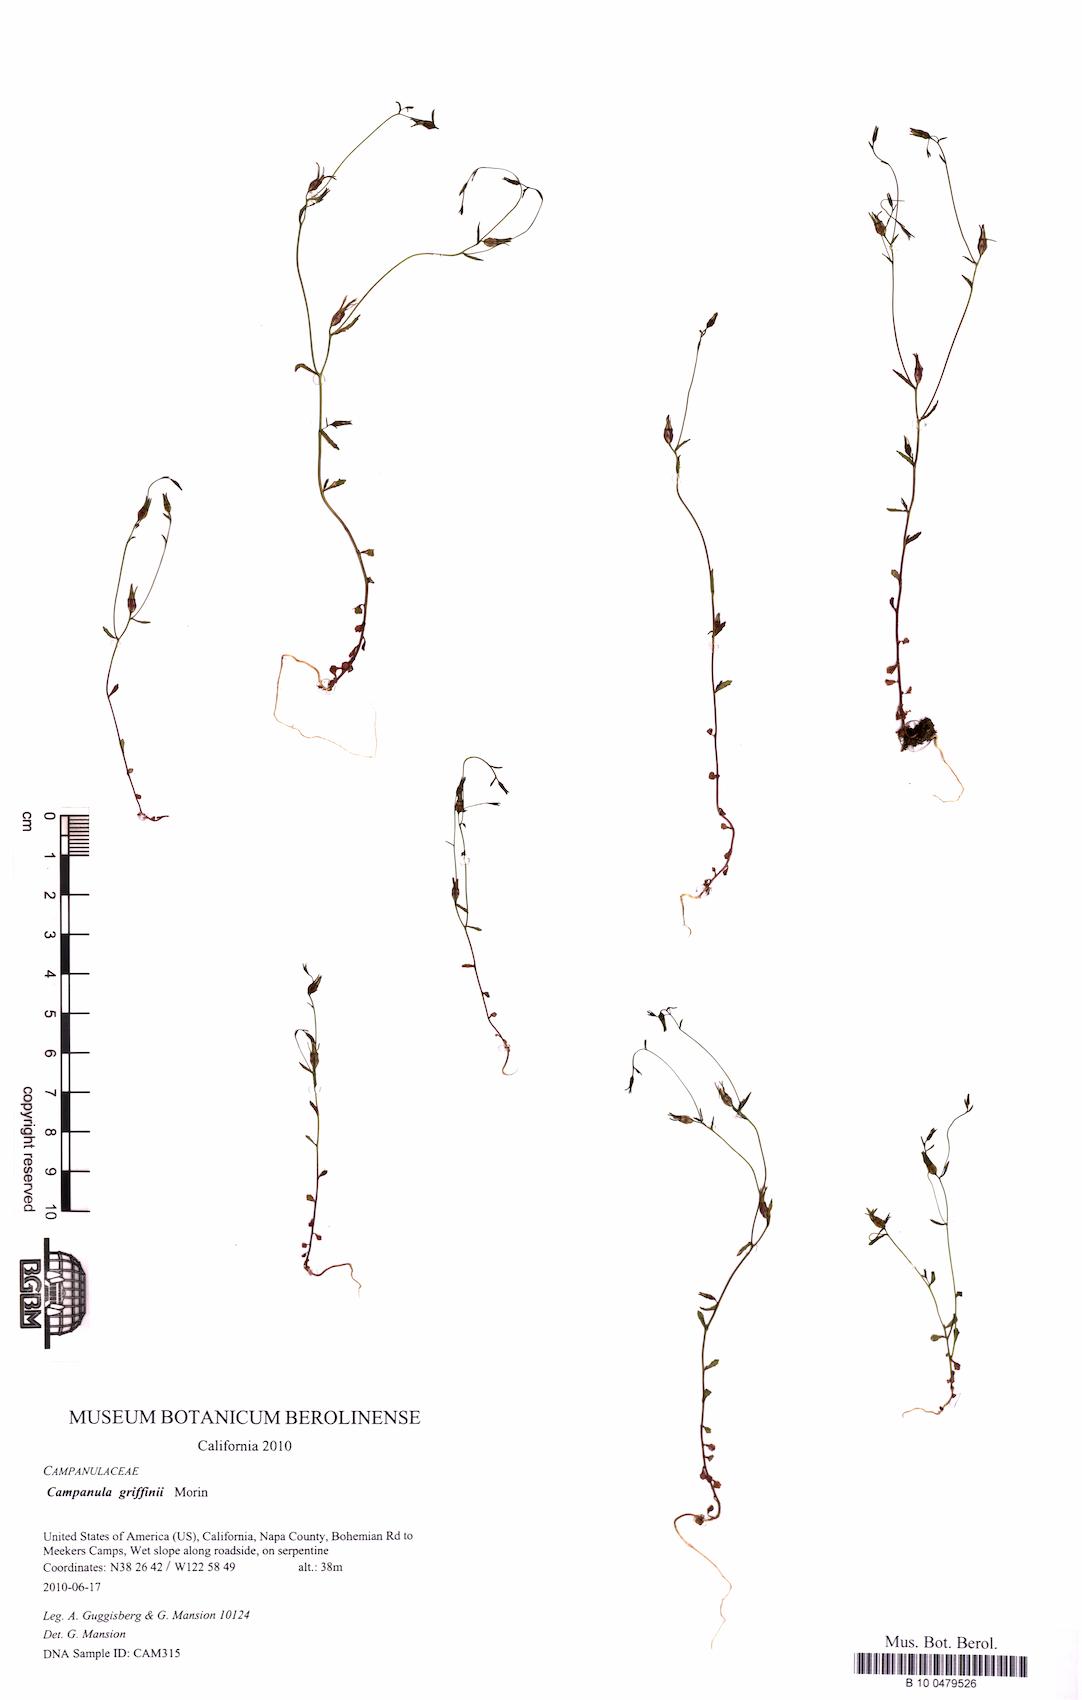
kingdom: Plantae
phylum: Tracheophyta
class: Magnoliopsida
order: Asterales
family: Campanulaceae
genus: Ravenella
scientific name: Ravenella griffinii
